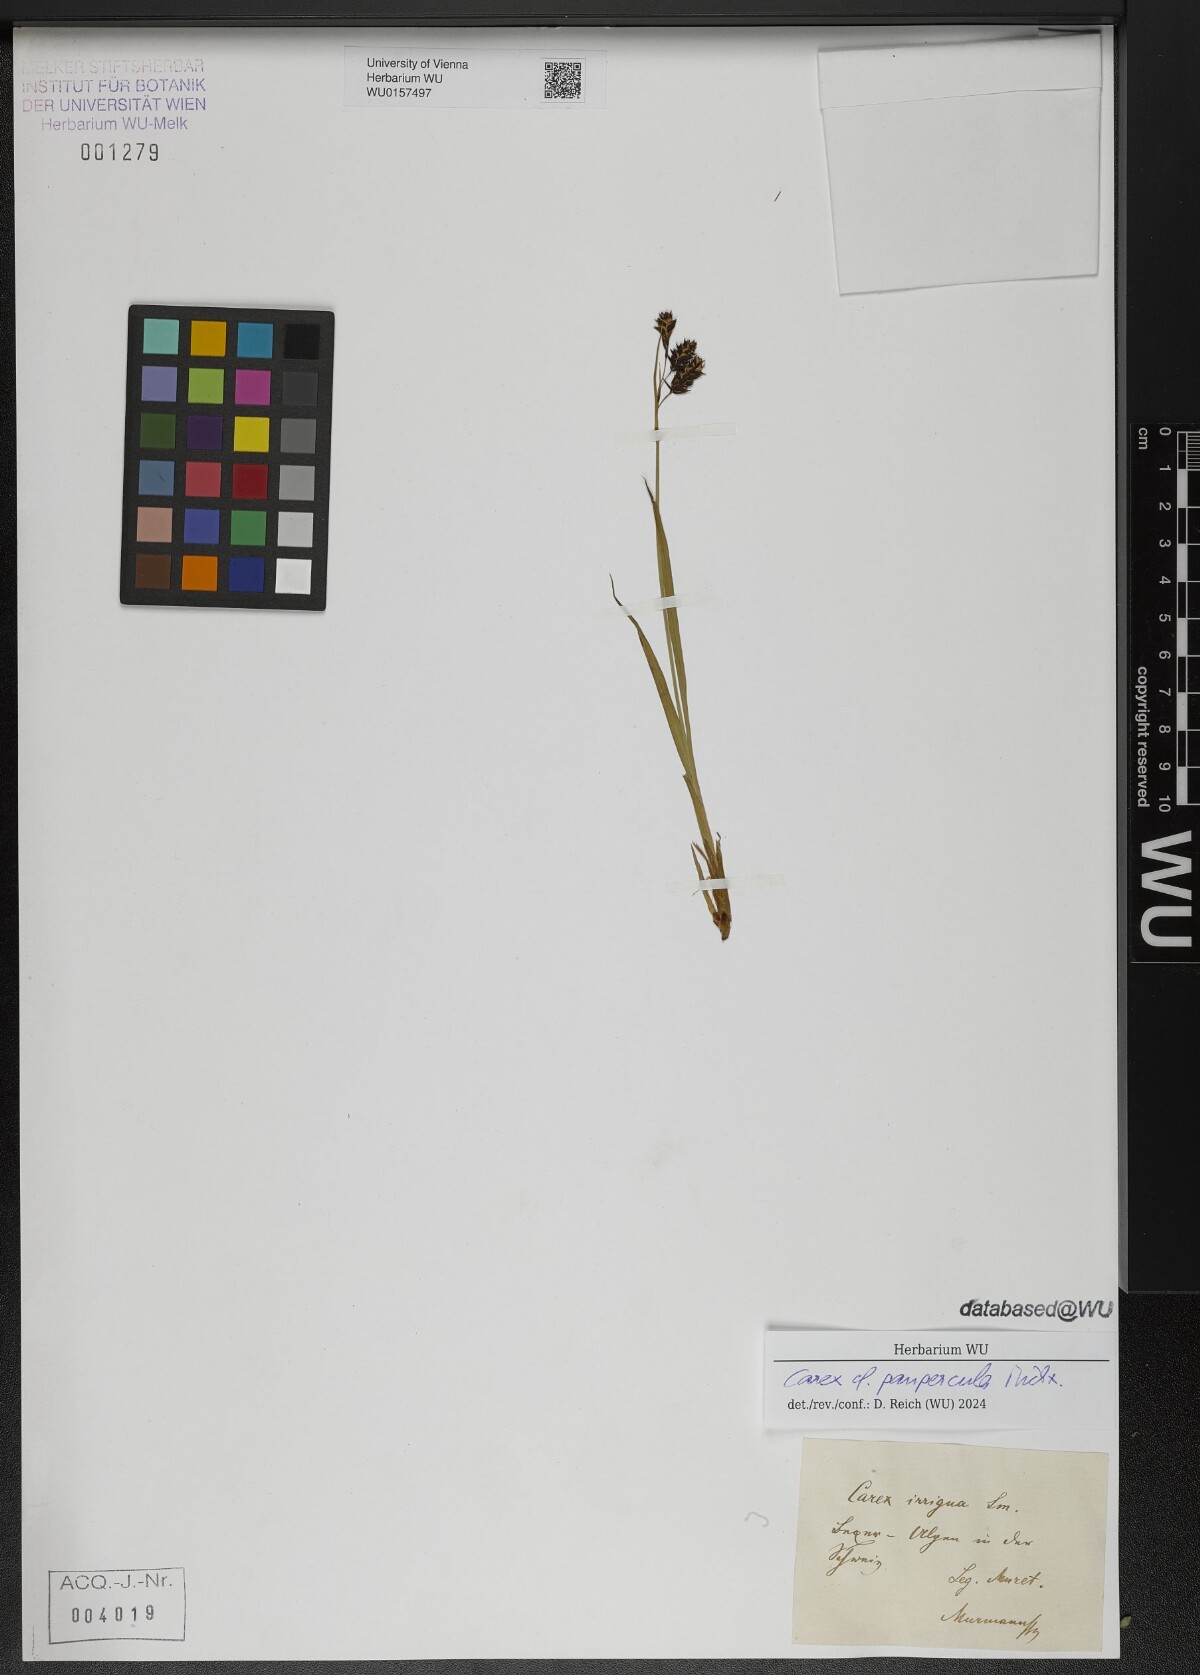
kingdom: Plantae
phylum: Tracheophyta
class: Liliopsida
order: Poales
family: Cyperaceae
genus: Carex
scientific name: Carex magellanica
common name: Bog sedge
